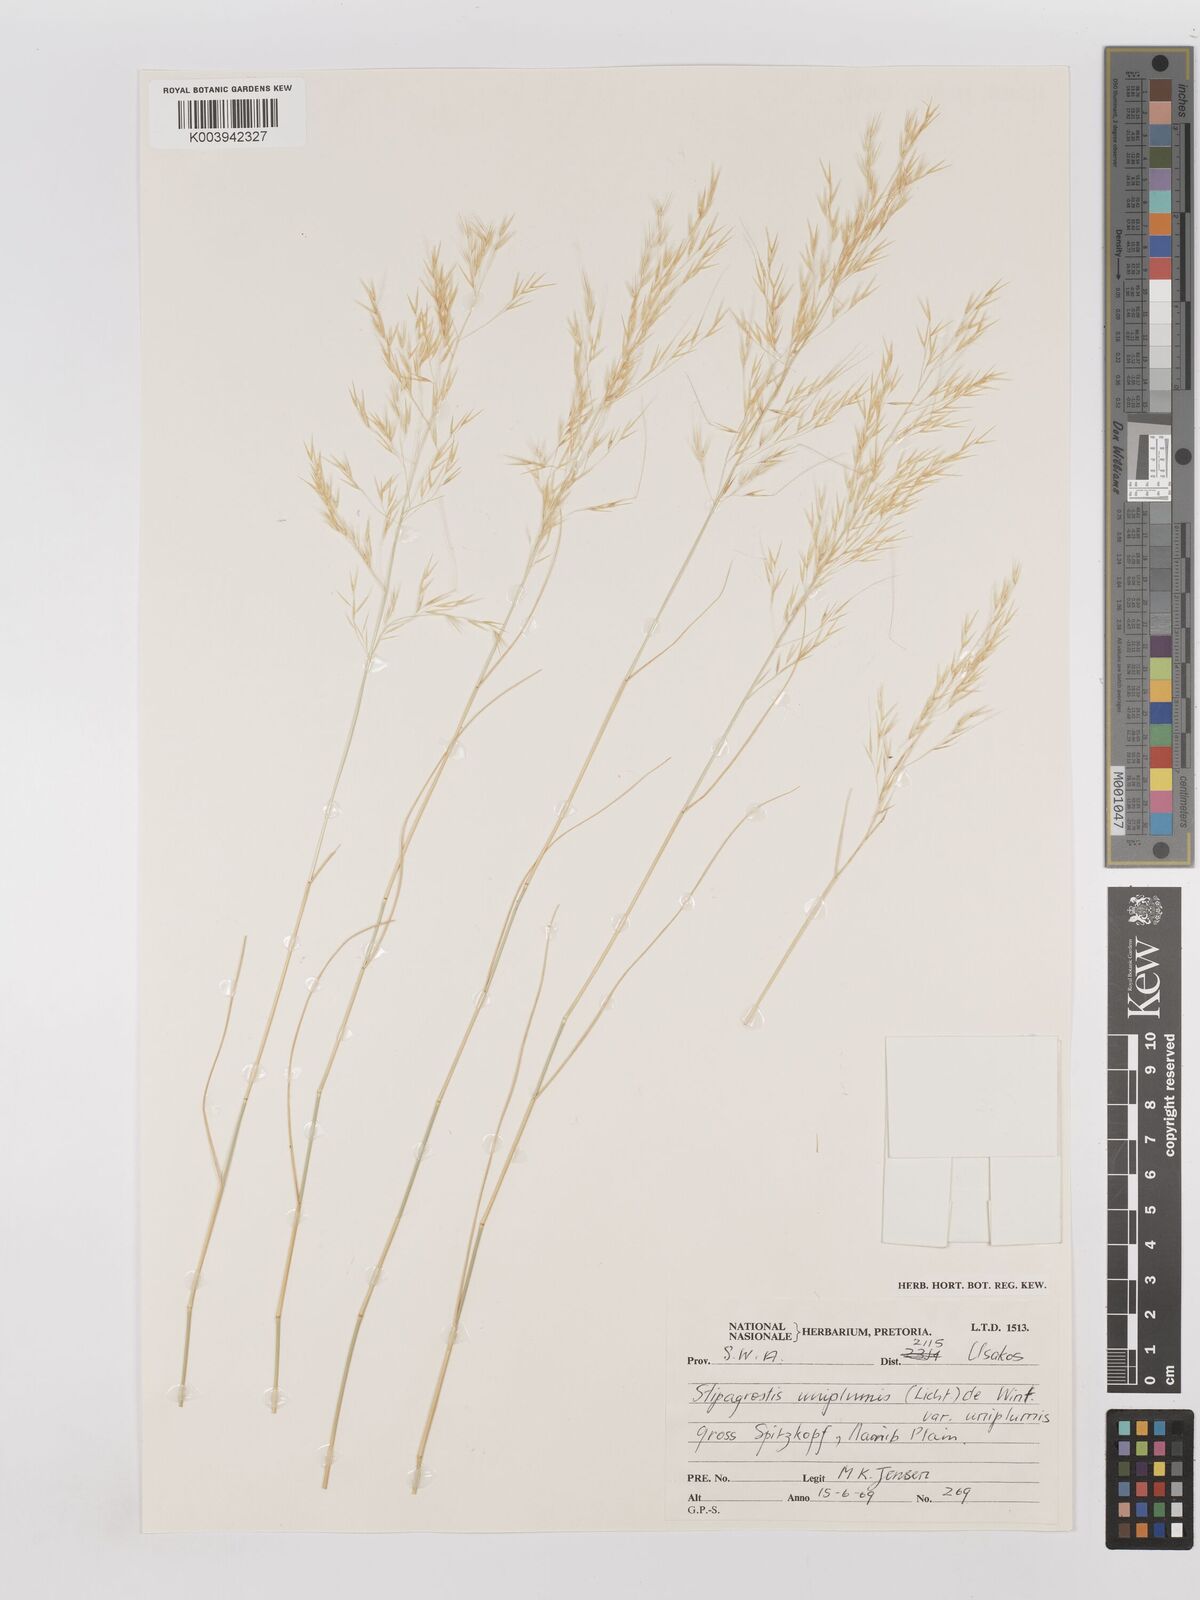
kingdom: Plantae
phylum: Tracheophyta
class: Liliopsida
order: Poales
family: Poaceae
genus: Stipagrostis
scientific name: Stipagrostis uniplumis
